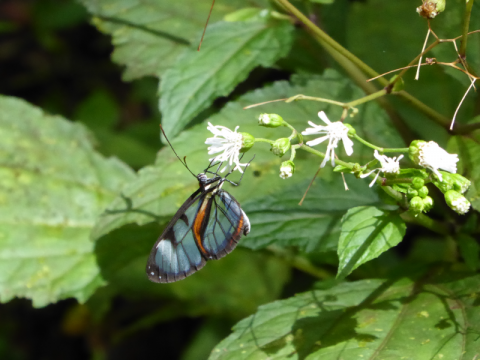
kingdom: Animalia
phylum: Arthropoda
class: Insecta
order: Lepidoptera
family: Nymphalidae
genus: Ithomia
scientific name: Ithomia diasia
